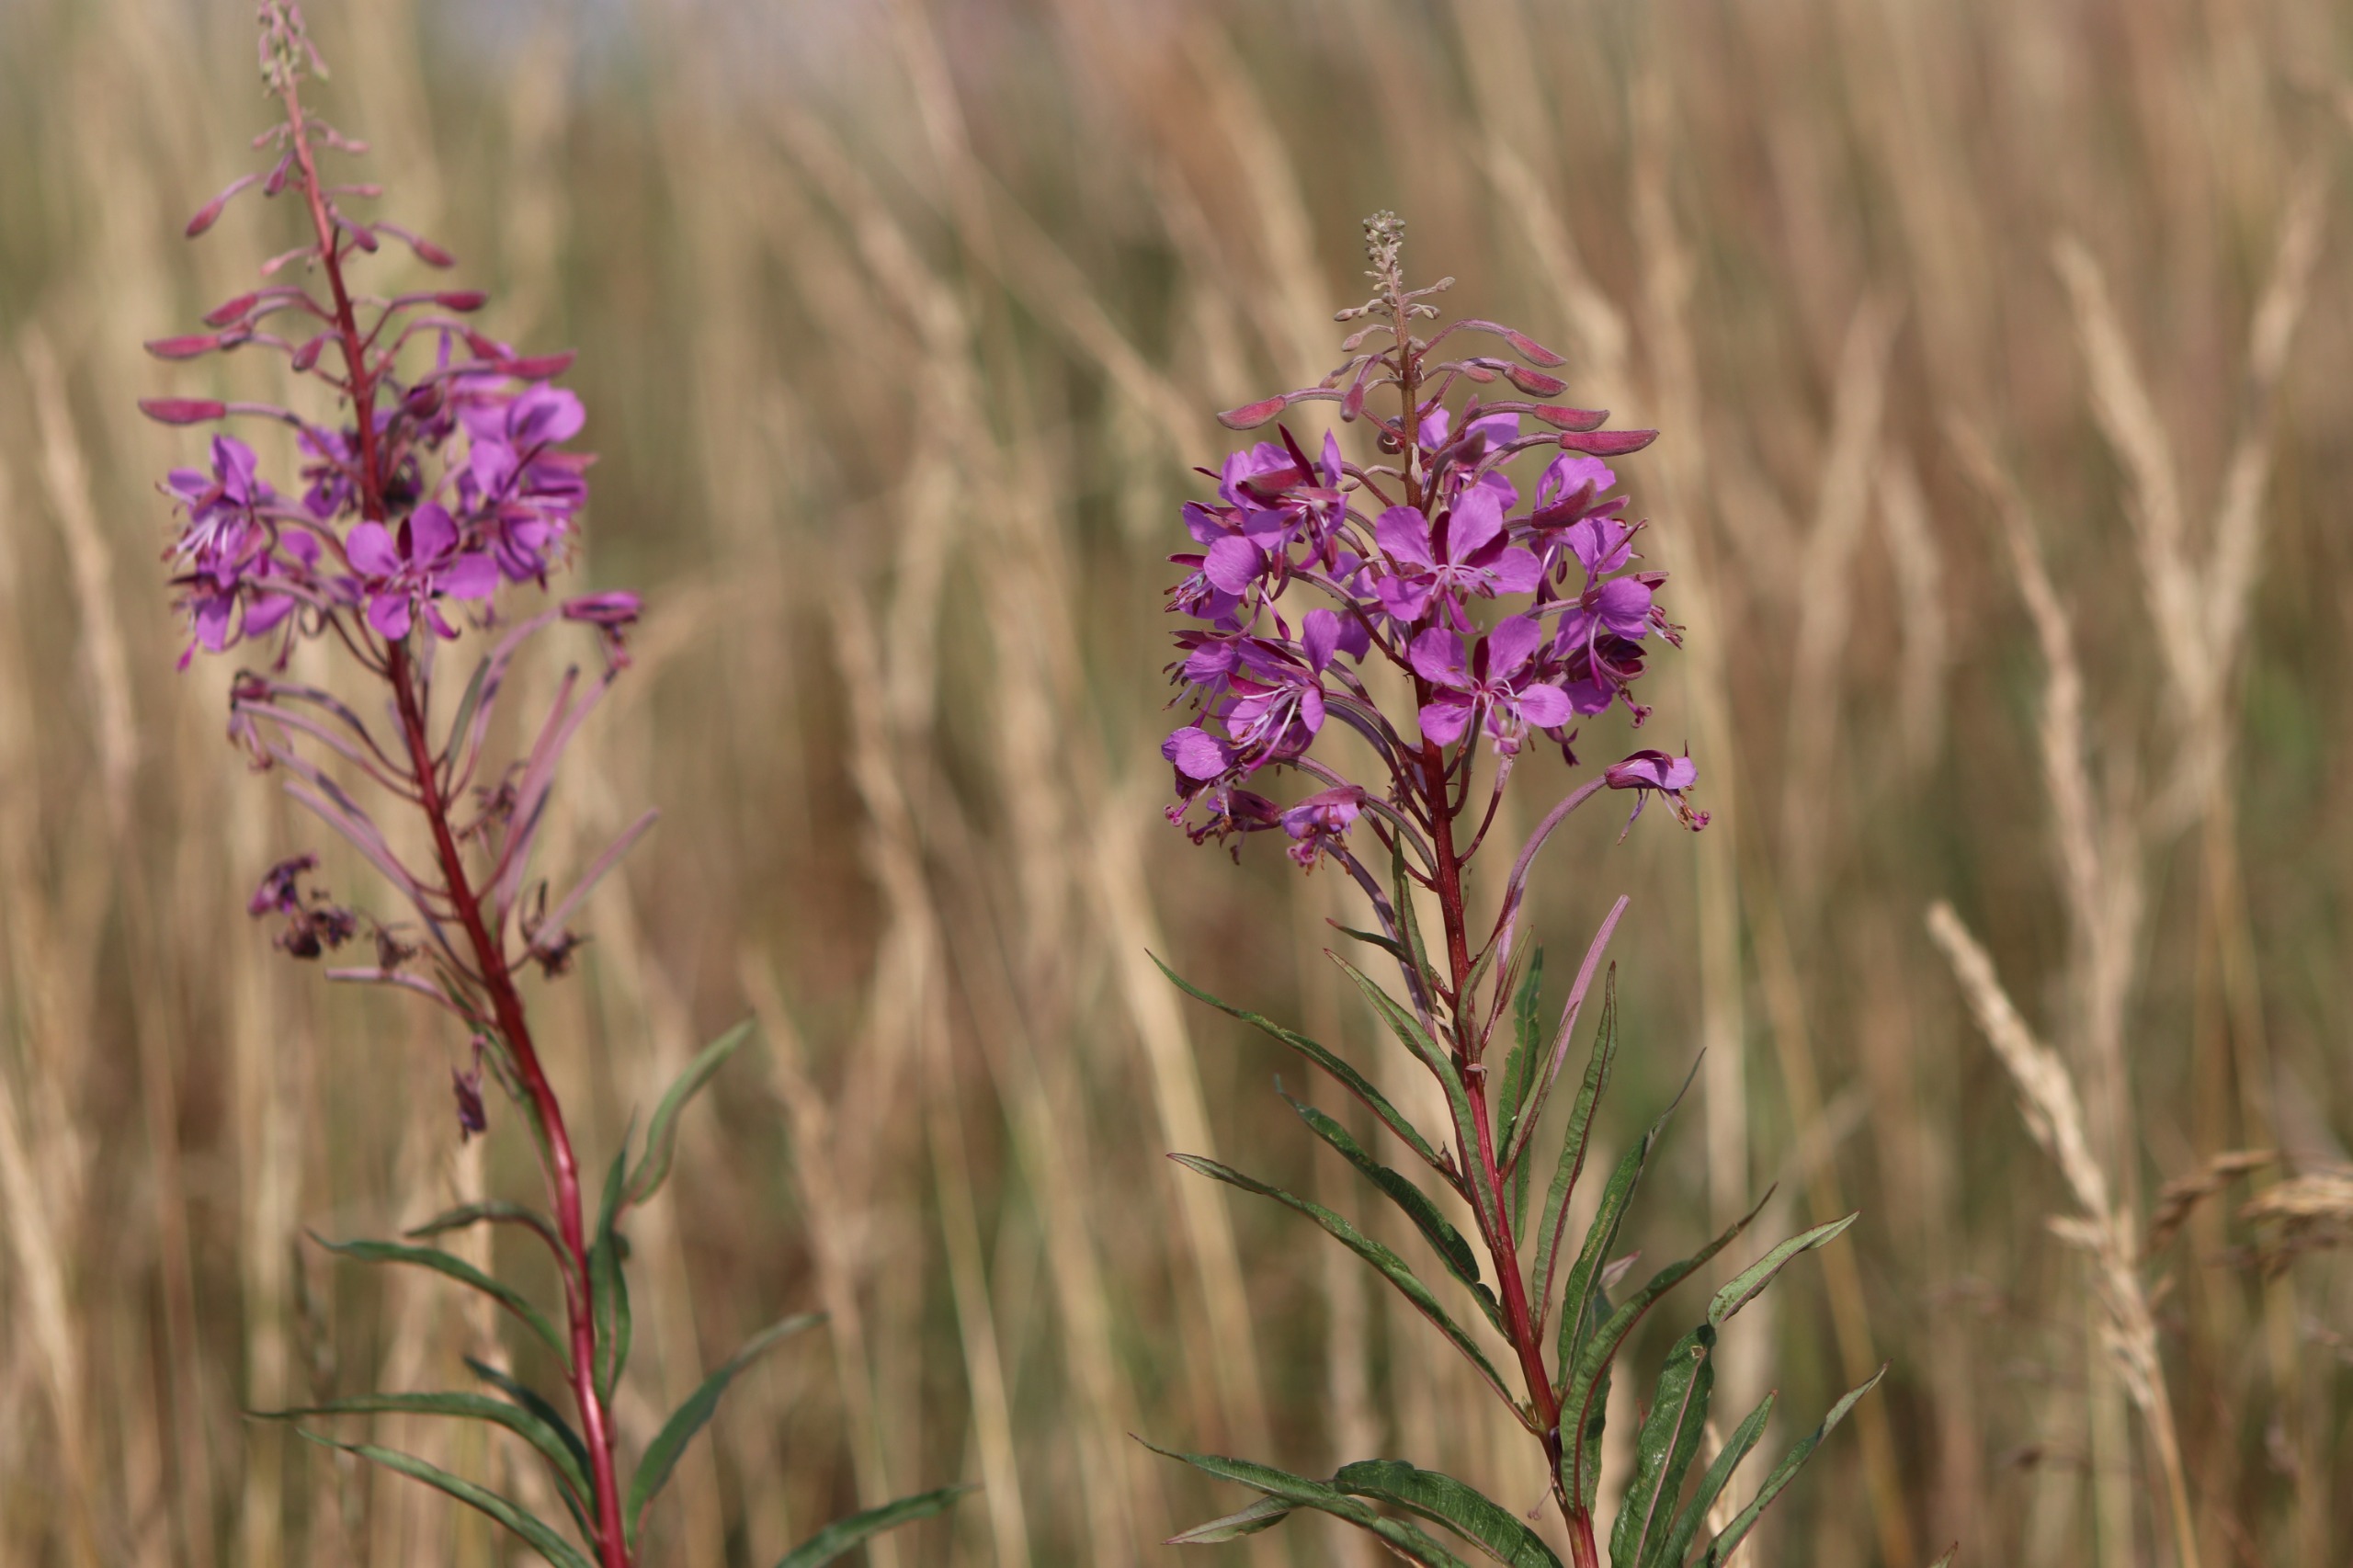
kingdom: Plantae
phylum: Tracheophyta
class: Magnoliopsida
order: Myrtales
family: Onagraceae
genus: Chamaenerion
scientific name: Chamaenerion angustifolium
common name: Gederams
